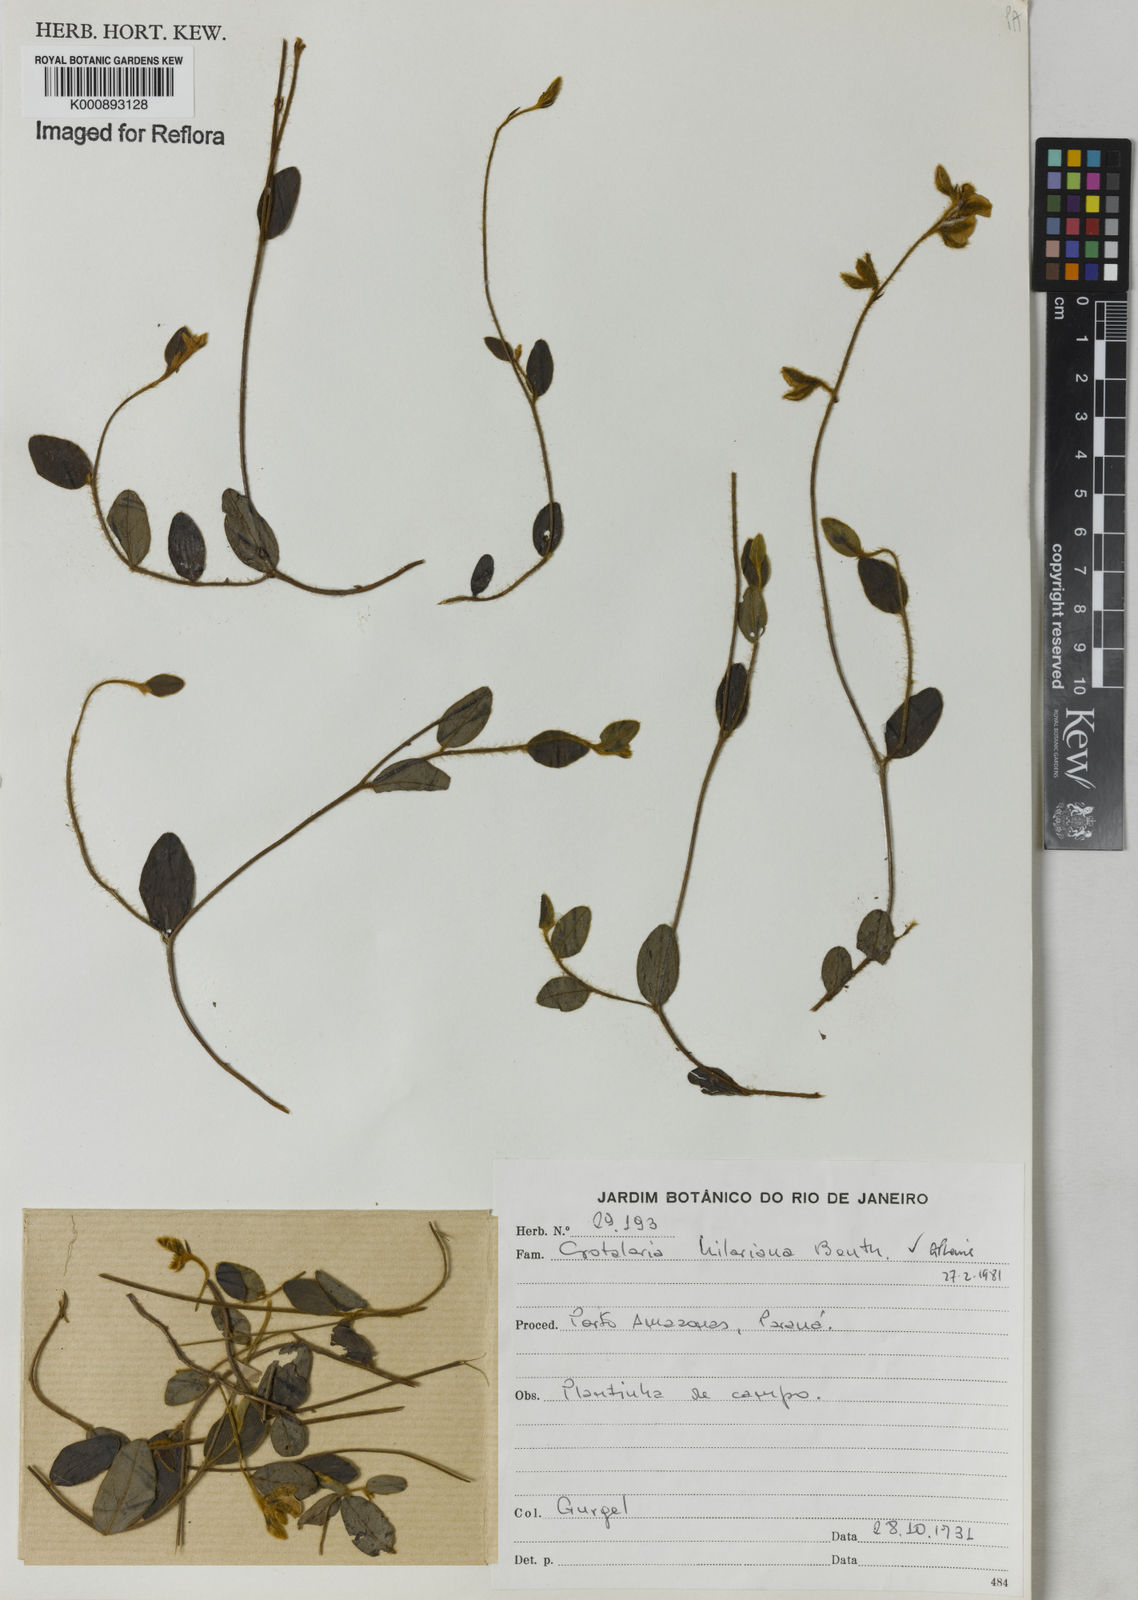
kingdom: Plantae
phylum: Tracheophyta
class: Magnoliopsida
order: Fabales
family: Fabaceae
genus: Crotalaria
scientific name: Crotalaria hilariana
